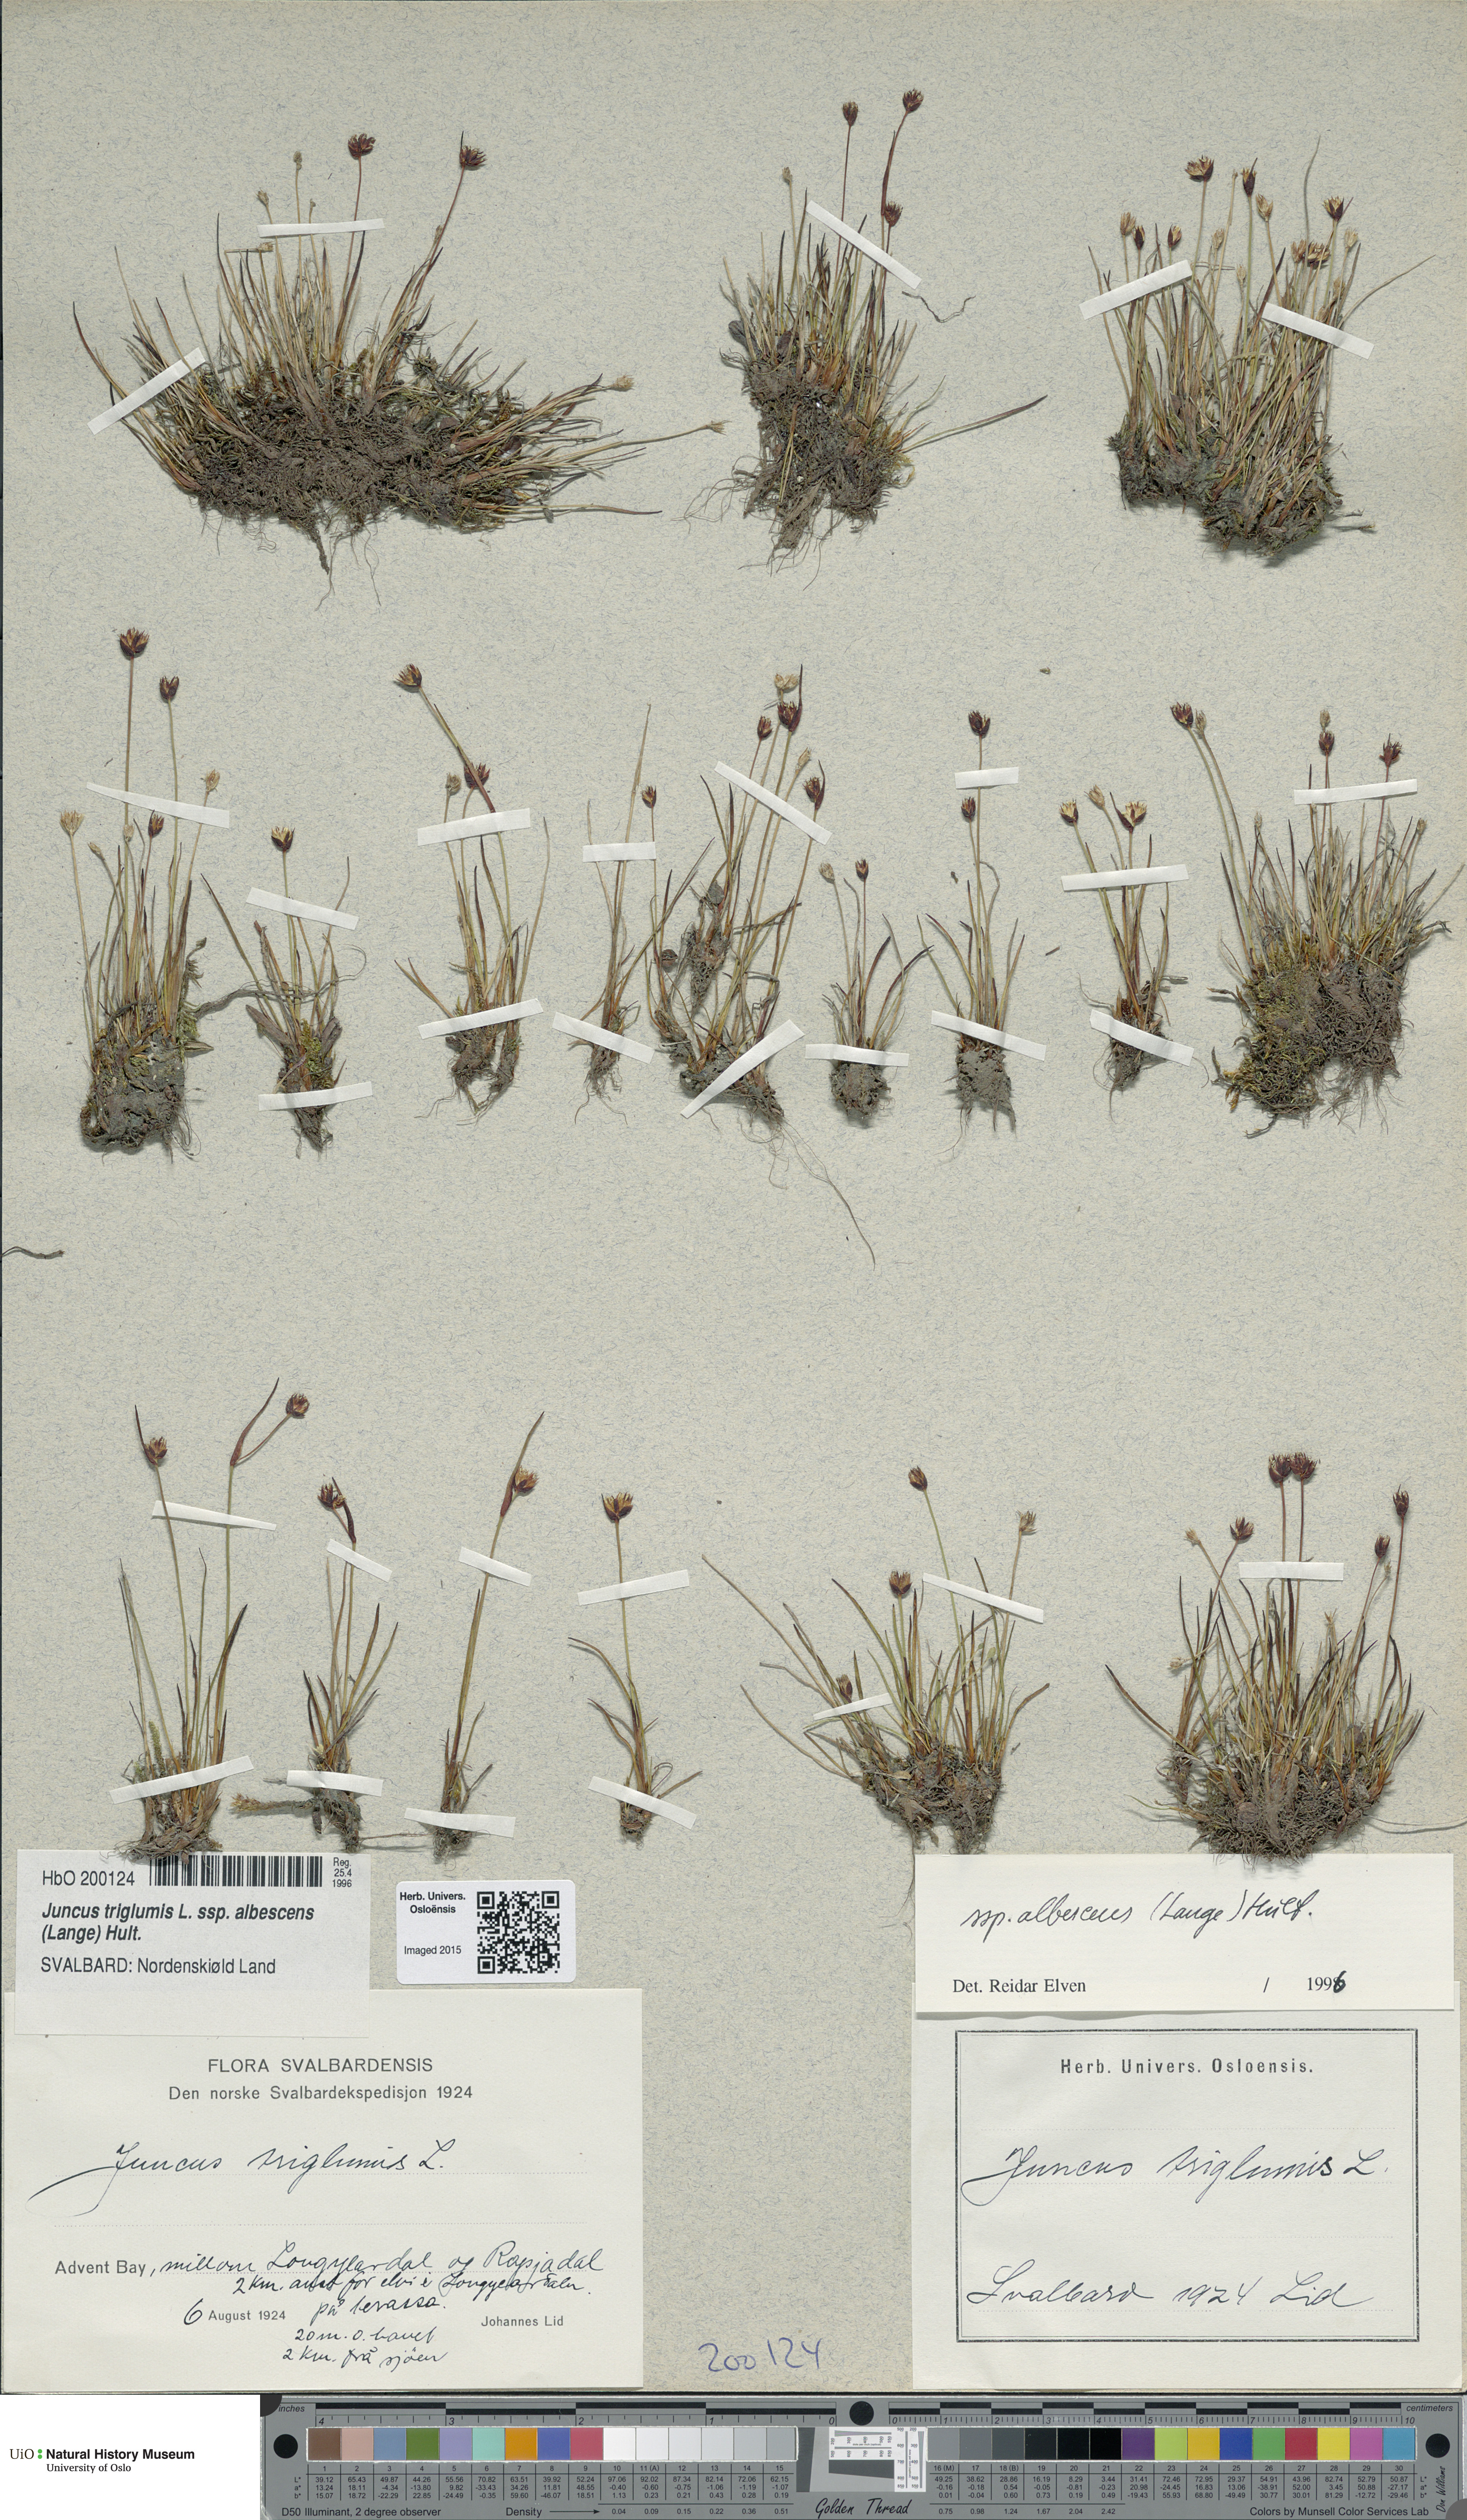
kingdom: Plantae
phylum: Tracheophyta
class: Liliopsida
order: Poales
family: Juncaceae
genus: Juncus
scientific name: Juncus albescens
